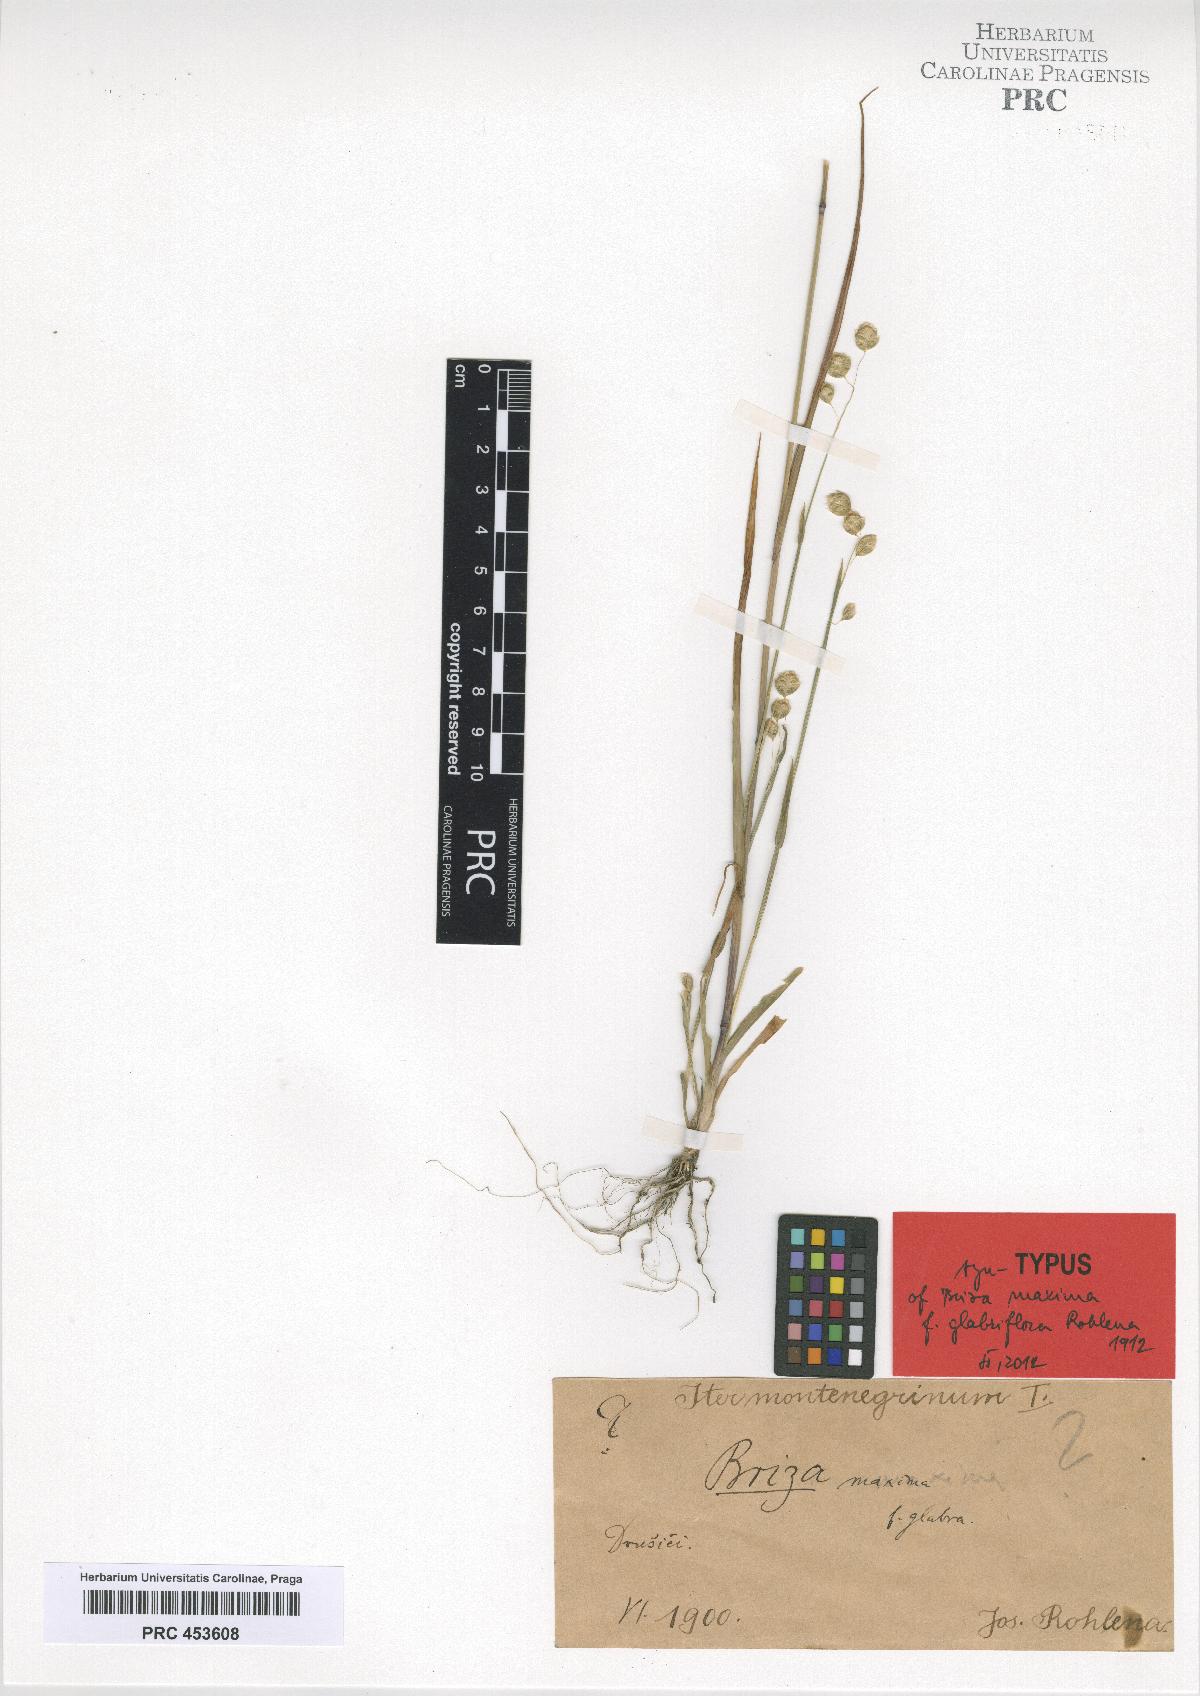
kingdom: Plantae
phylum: Tracheophyta
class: Liliopsida
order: Poales
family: Poaceae
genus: Briza
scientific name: Briza maxima
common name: Big quakinggrass
